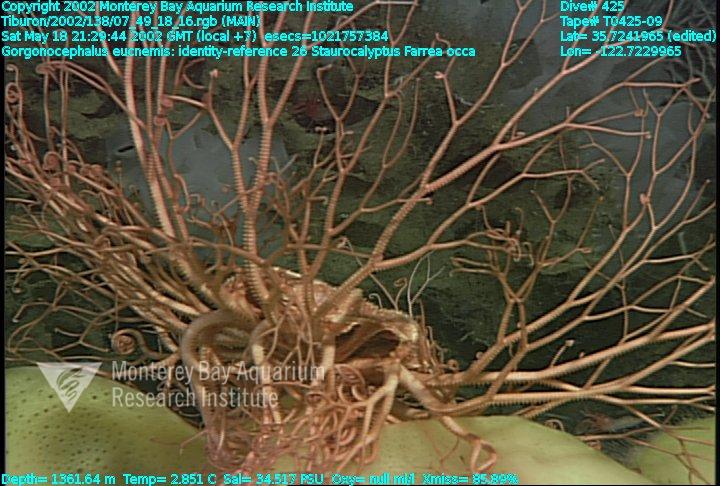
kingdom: Animalia
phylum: Porifera
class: Hexactinellida
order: Lyssacinosida
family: Rossellidae
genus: Staurocalyptus
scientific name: Staurocalyptus
